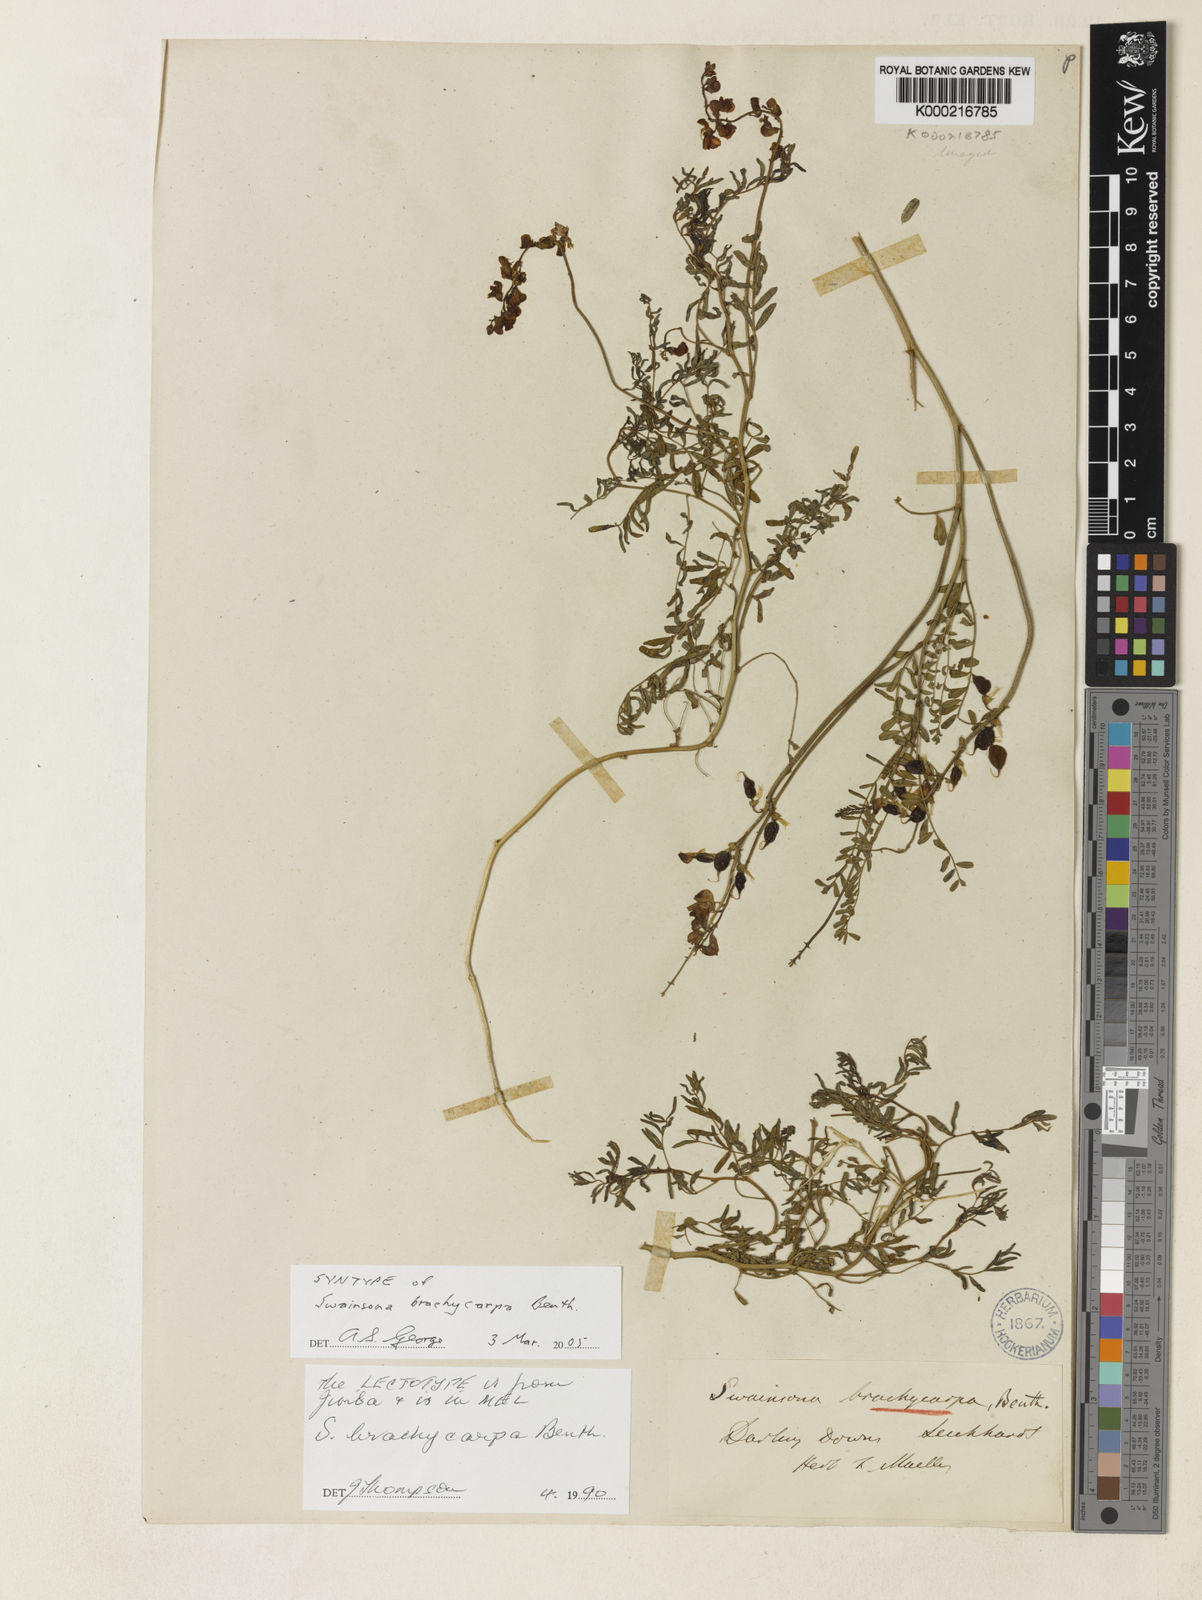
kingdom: Plantae
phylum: Tracheophyta
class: Magnoliopsida
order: Fabales
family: Fabaceae
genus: Swainsona
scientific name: Swainsona brachycarpa
